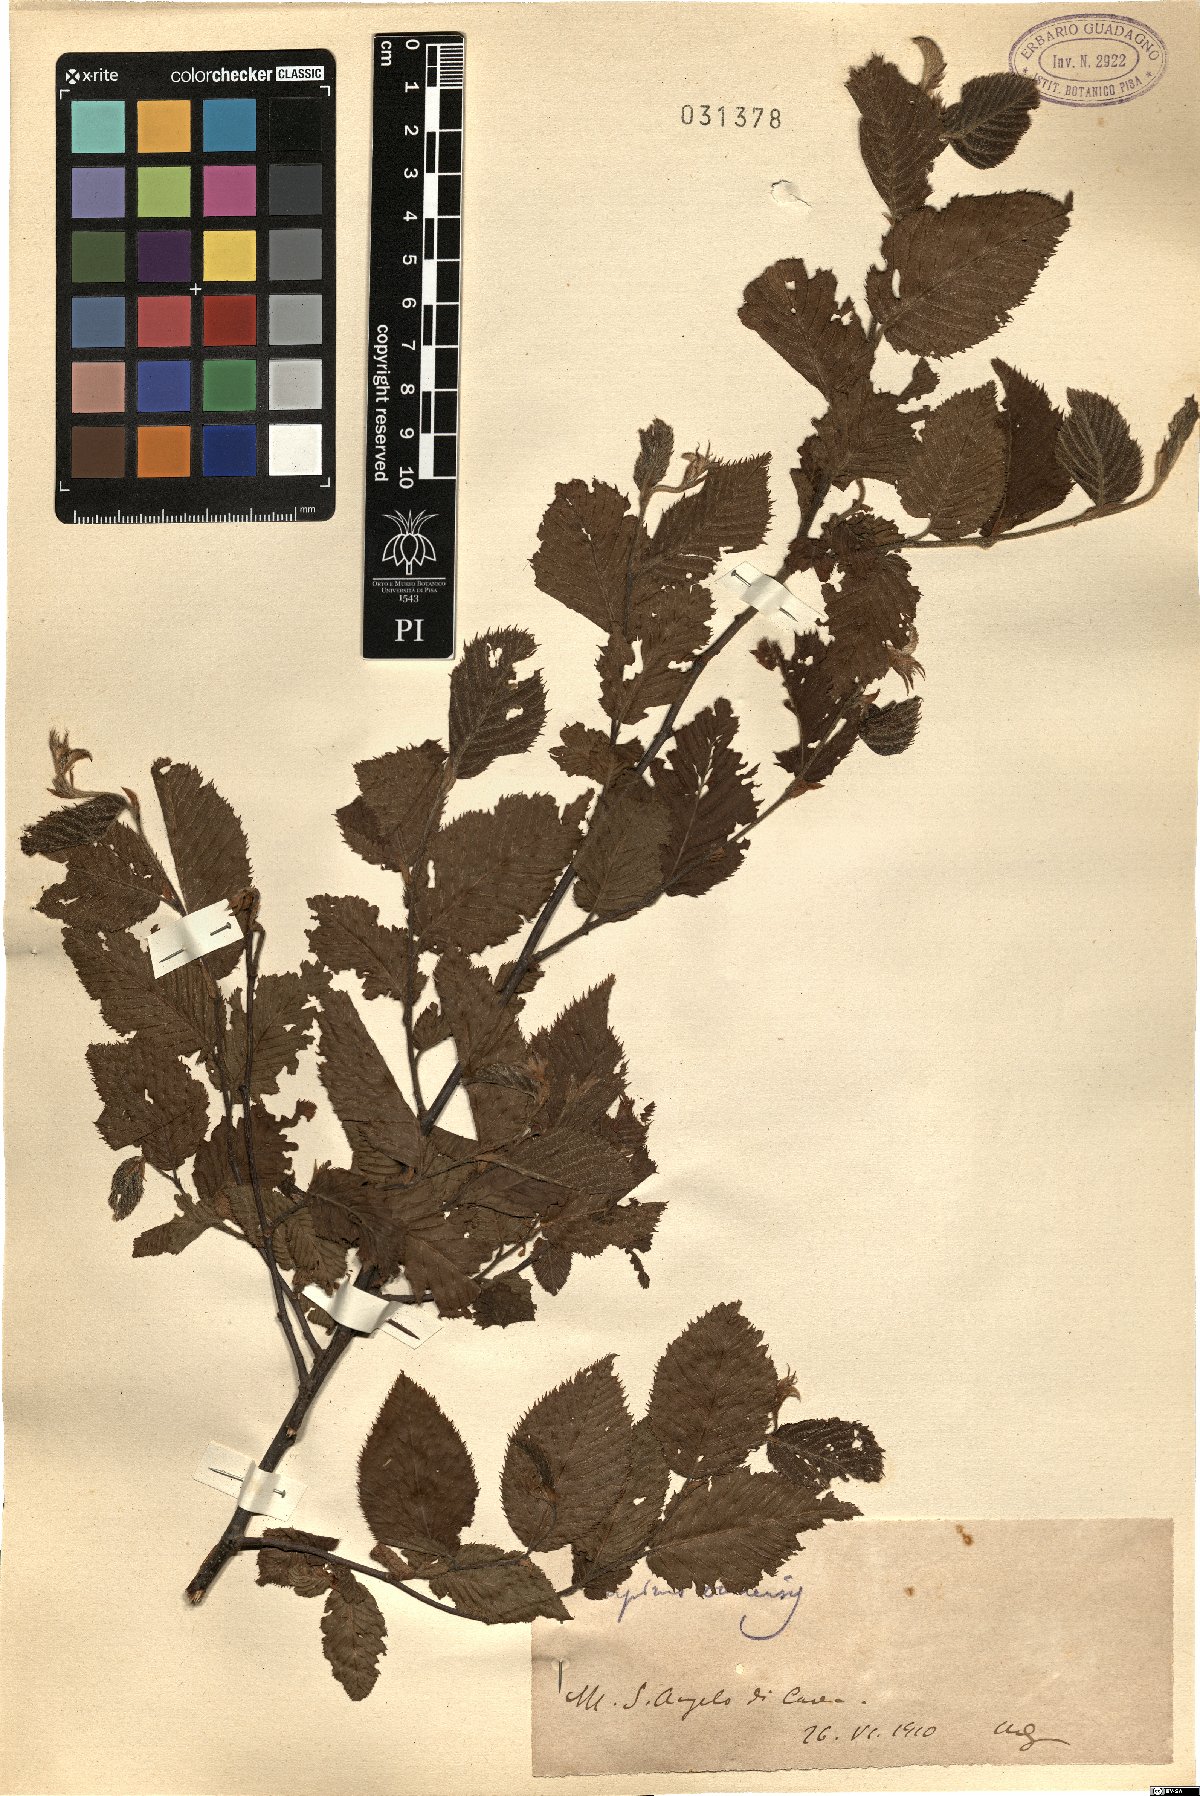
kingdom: Plantae
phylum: Tracheophyta
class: Magnoliopsida
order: Fagales
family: Betulaceae
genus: Carpinus
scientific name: Carpinus orientalis
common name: Eastern hornbeam
